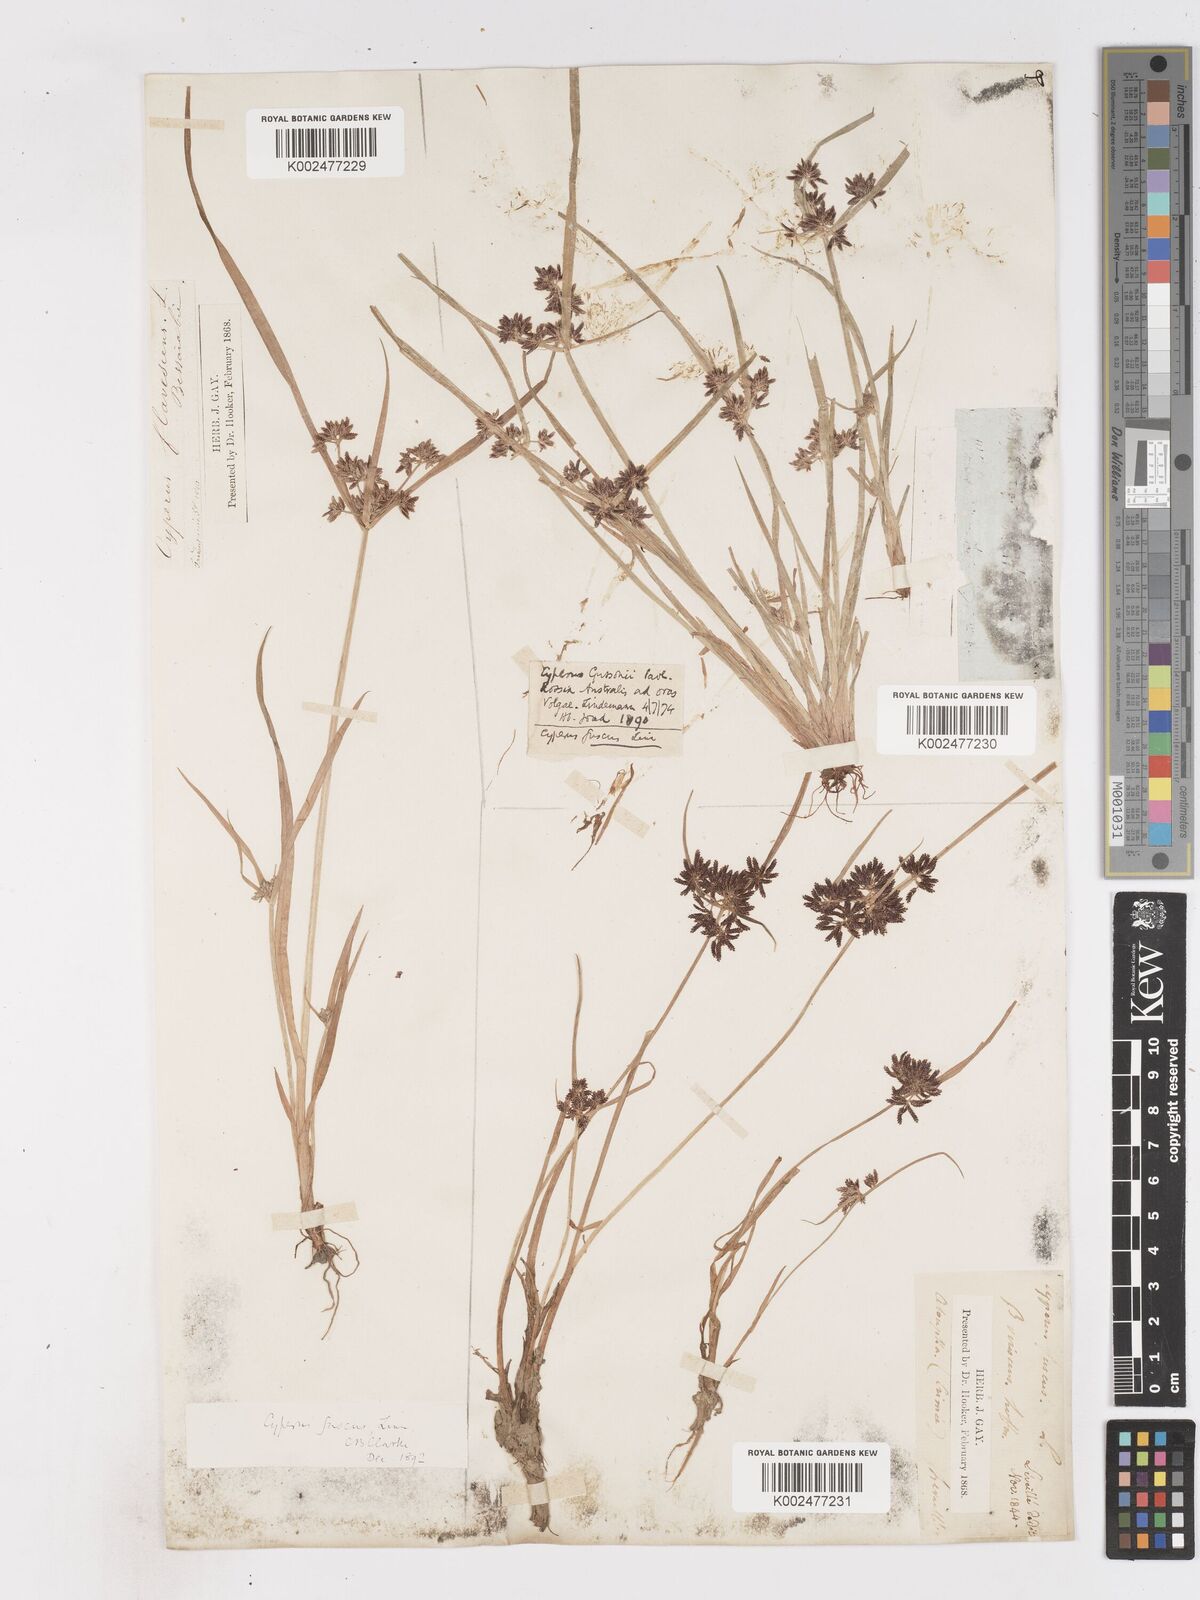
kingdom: Plantae
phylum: Tracheophyta
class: Liliopsida
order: Poales
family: Cyperaceae
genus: Cyperus
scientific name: Cyperus fuscus
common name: Brown galingale
